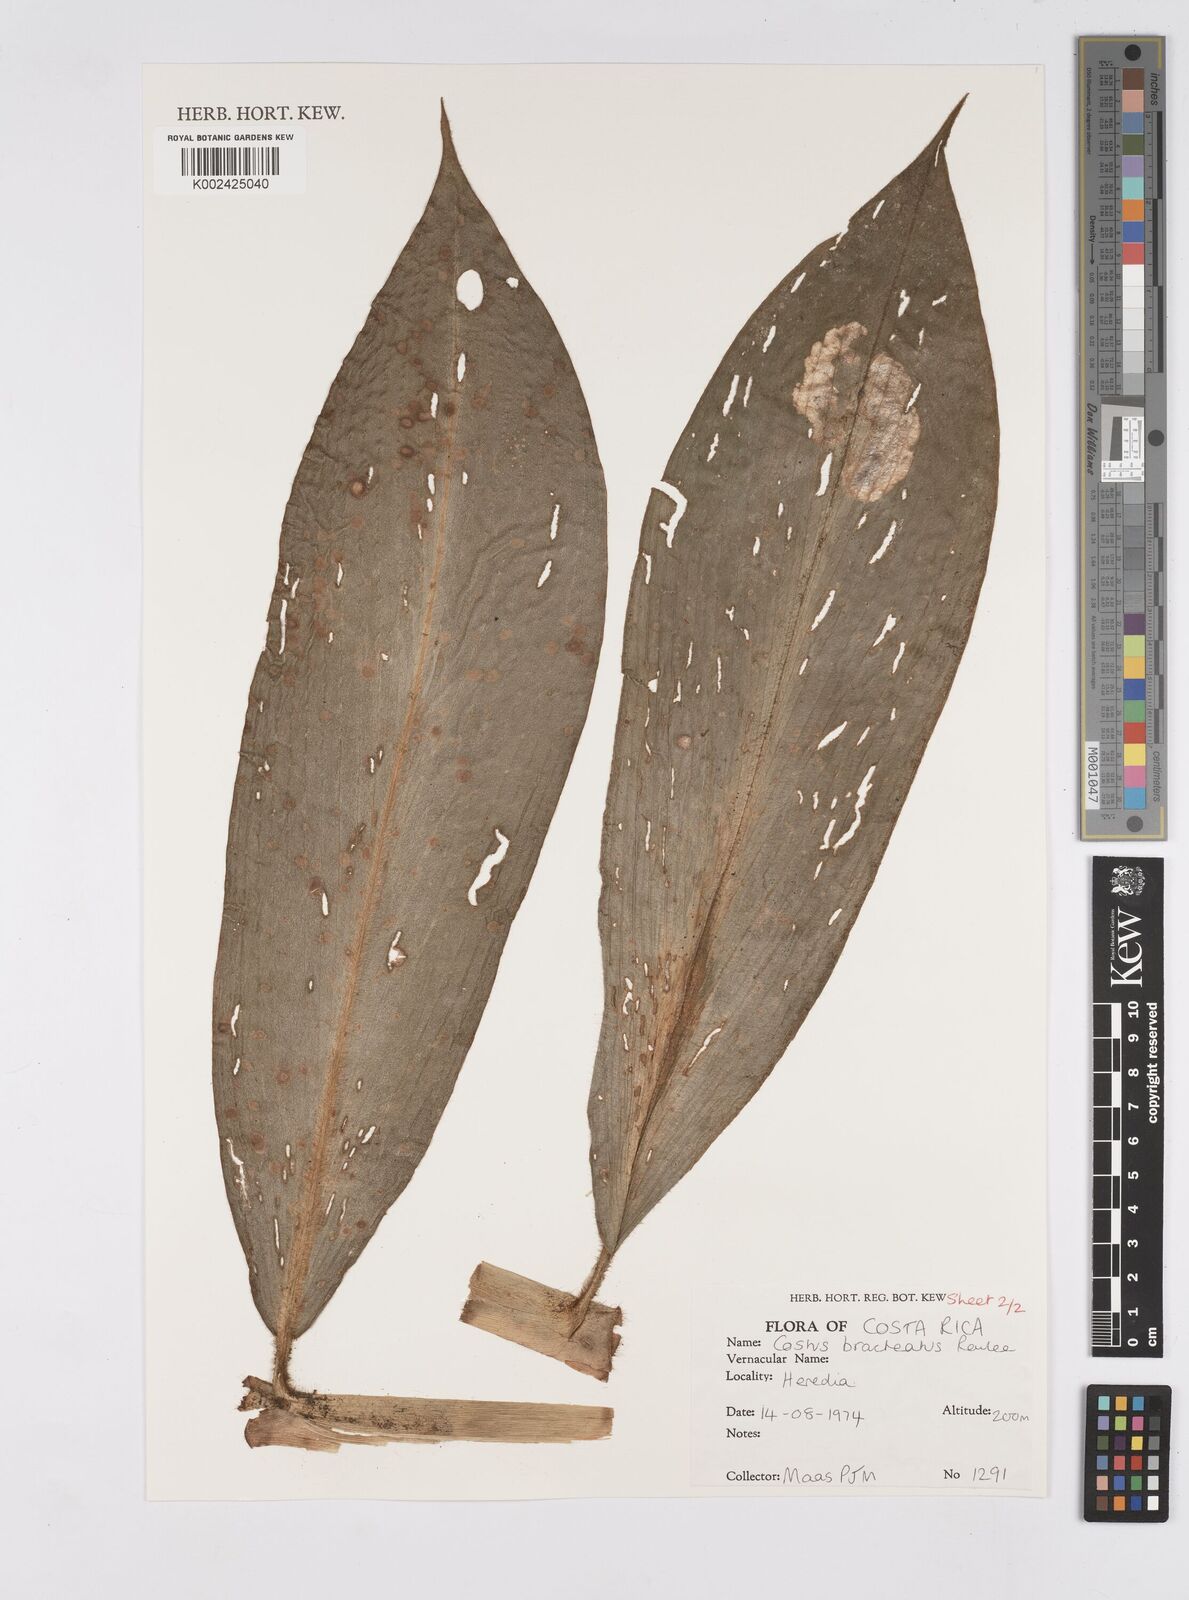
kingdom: Plantae
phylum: Tracheophyta
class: Liliopsida
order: Zingiberales
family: Costaceae
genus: Costus
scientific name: Costus bracteatus
